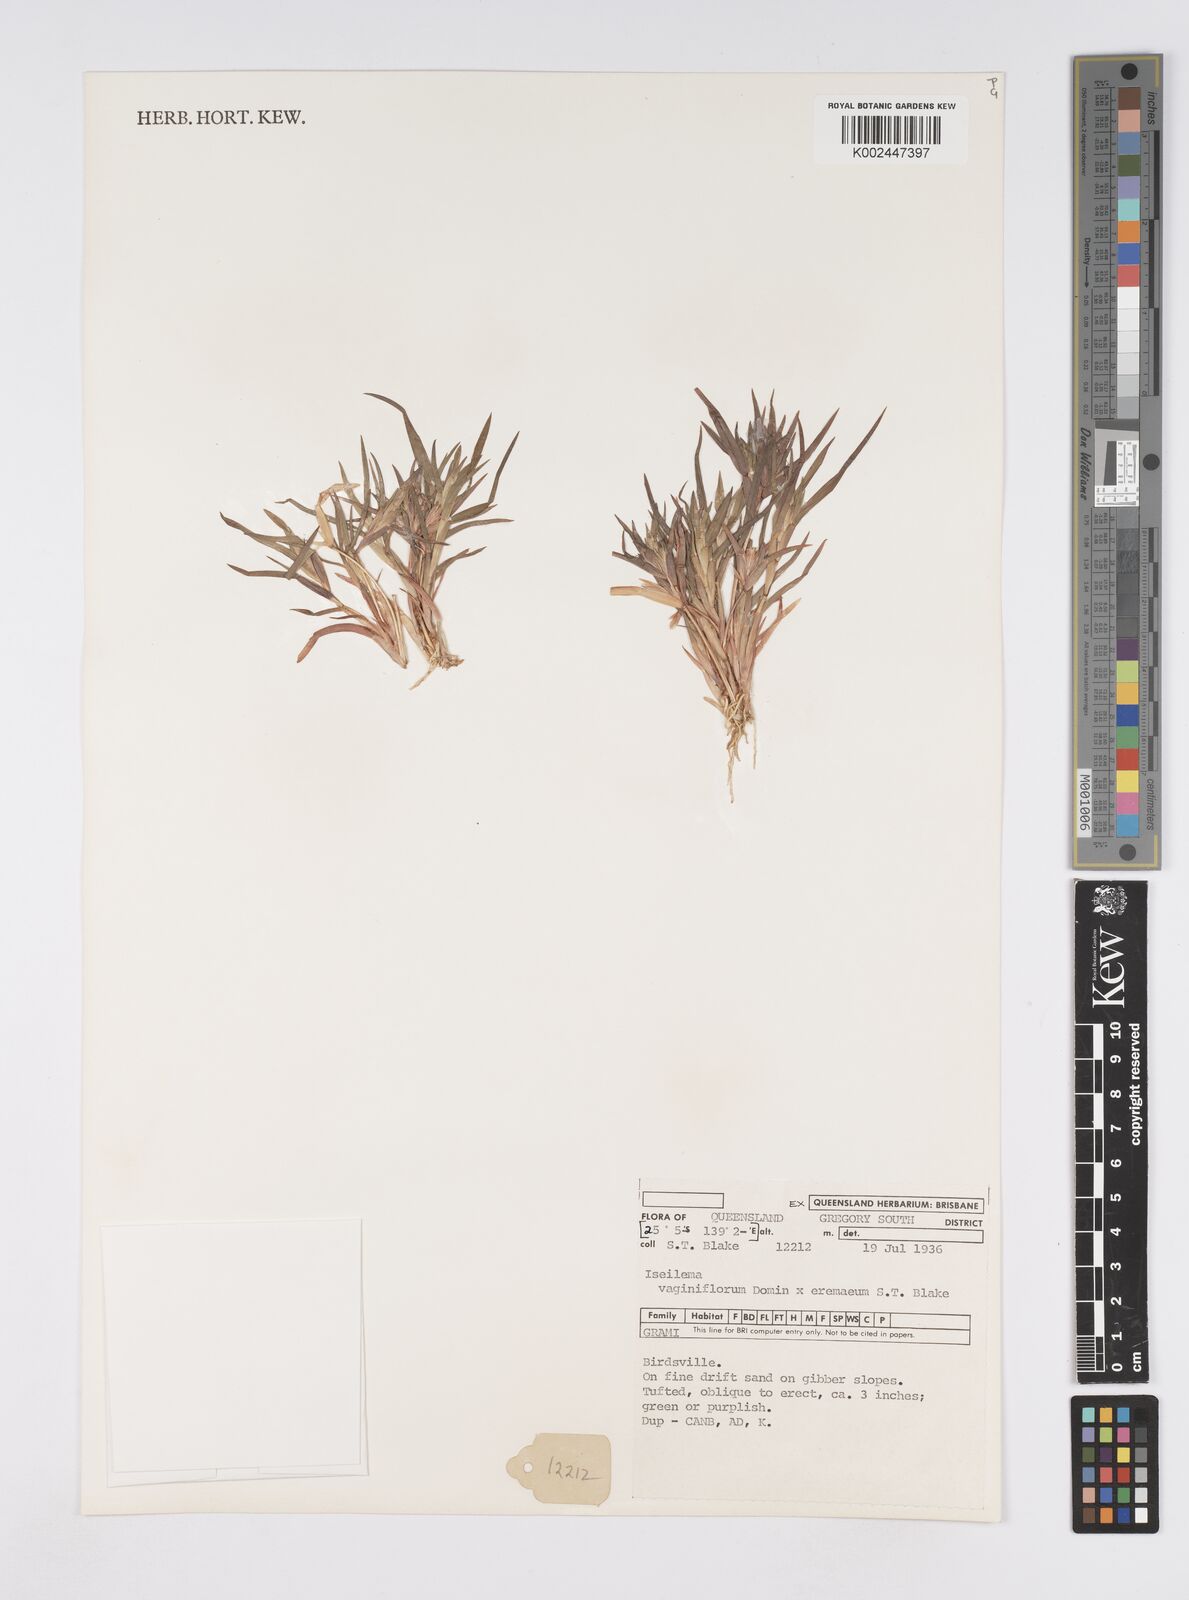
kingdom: Plantae
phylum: Tracheophyta
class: Liliopsida
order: Poales
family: Poaceae
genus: Iseilema
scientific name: Iseilema vaginiflorum
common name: Red flinders grass
